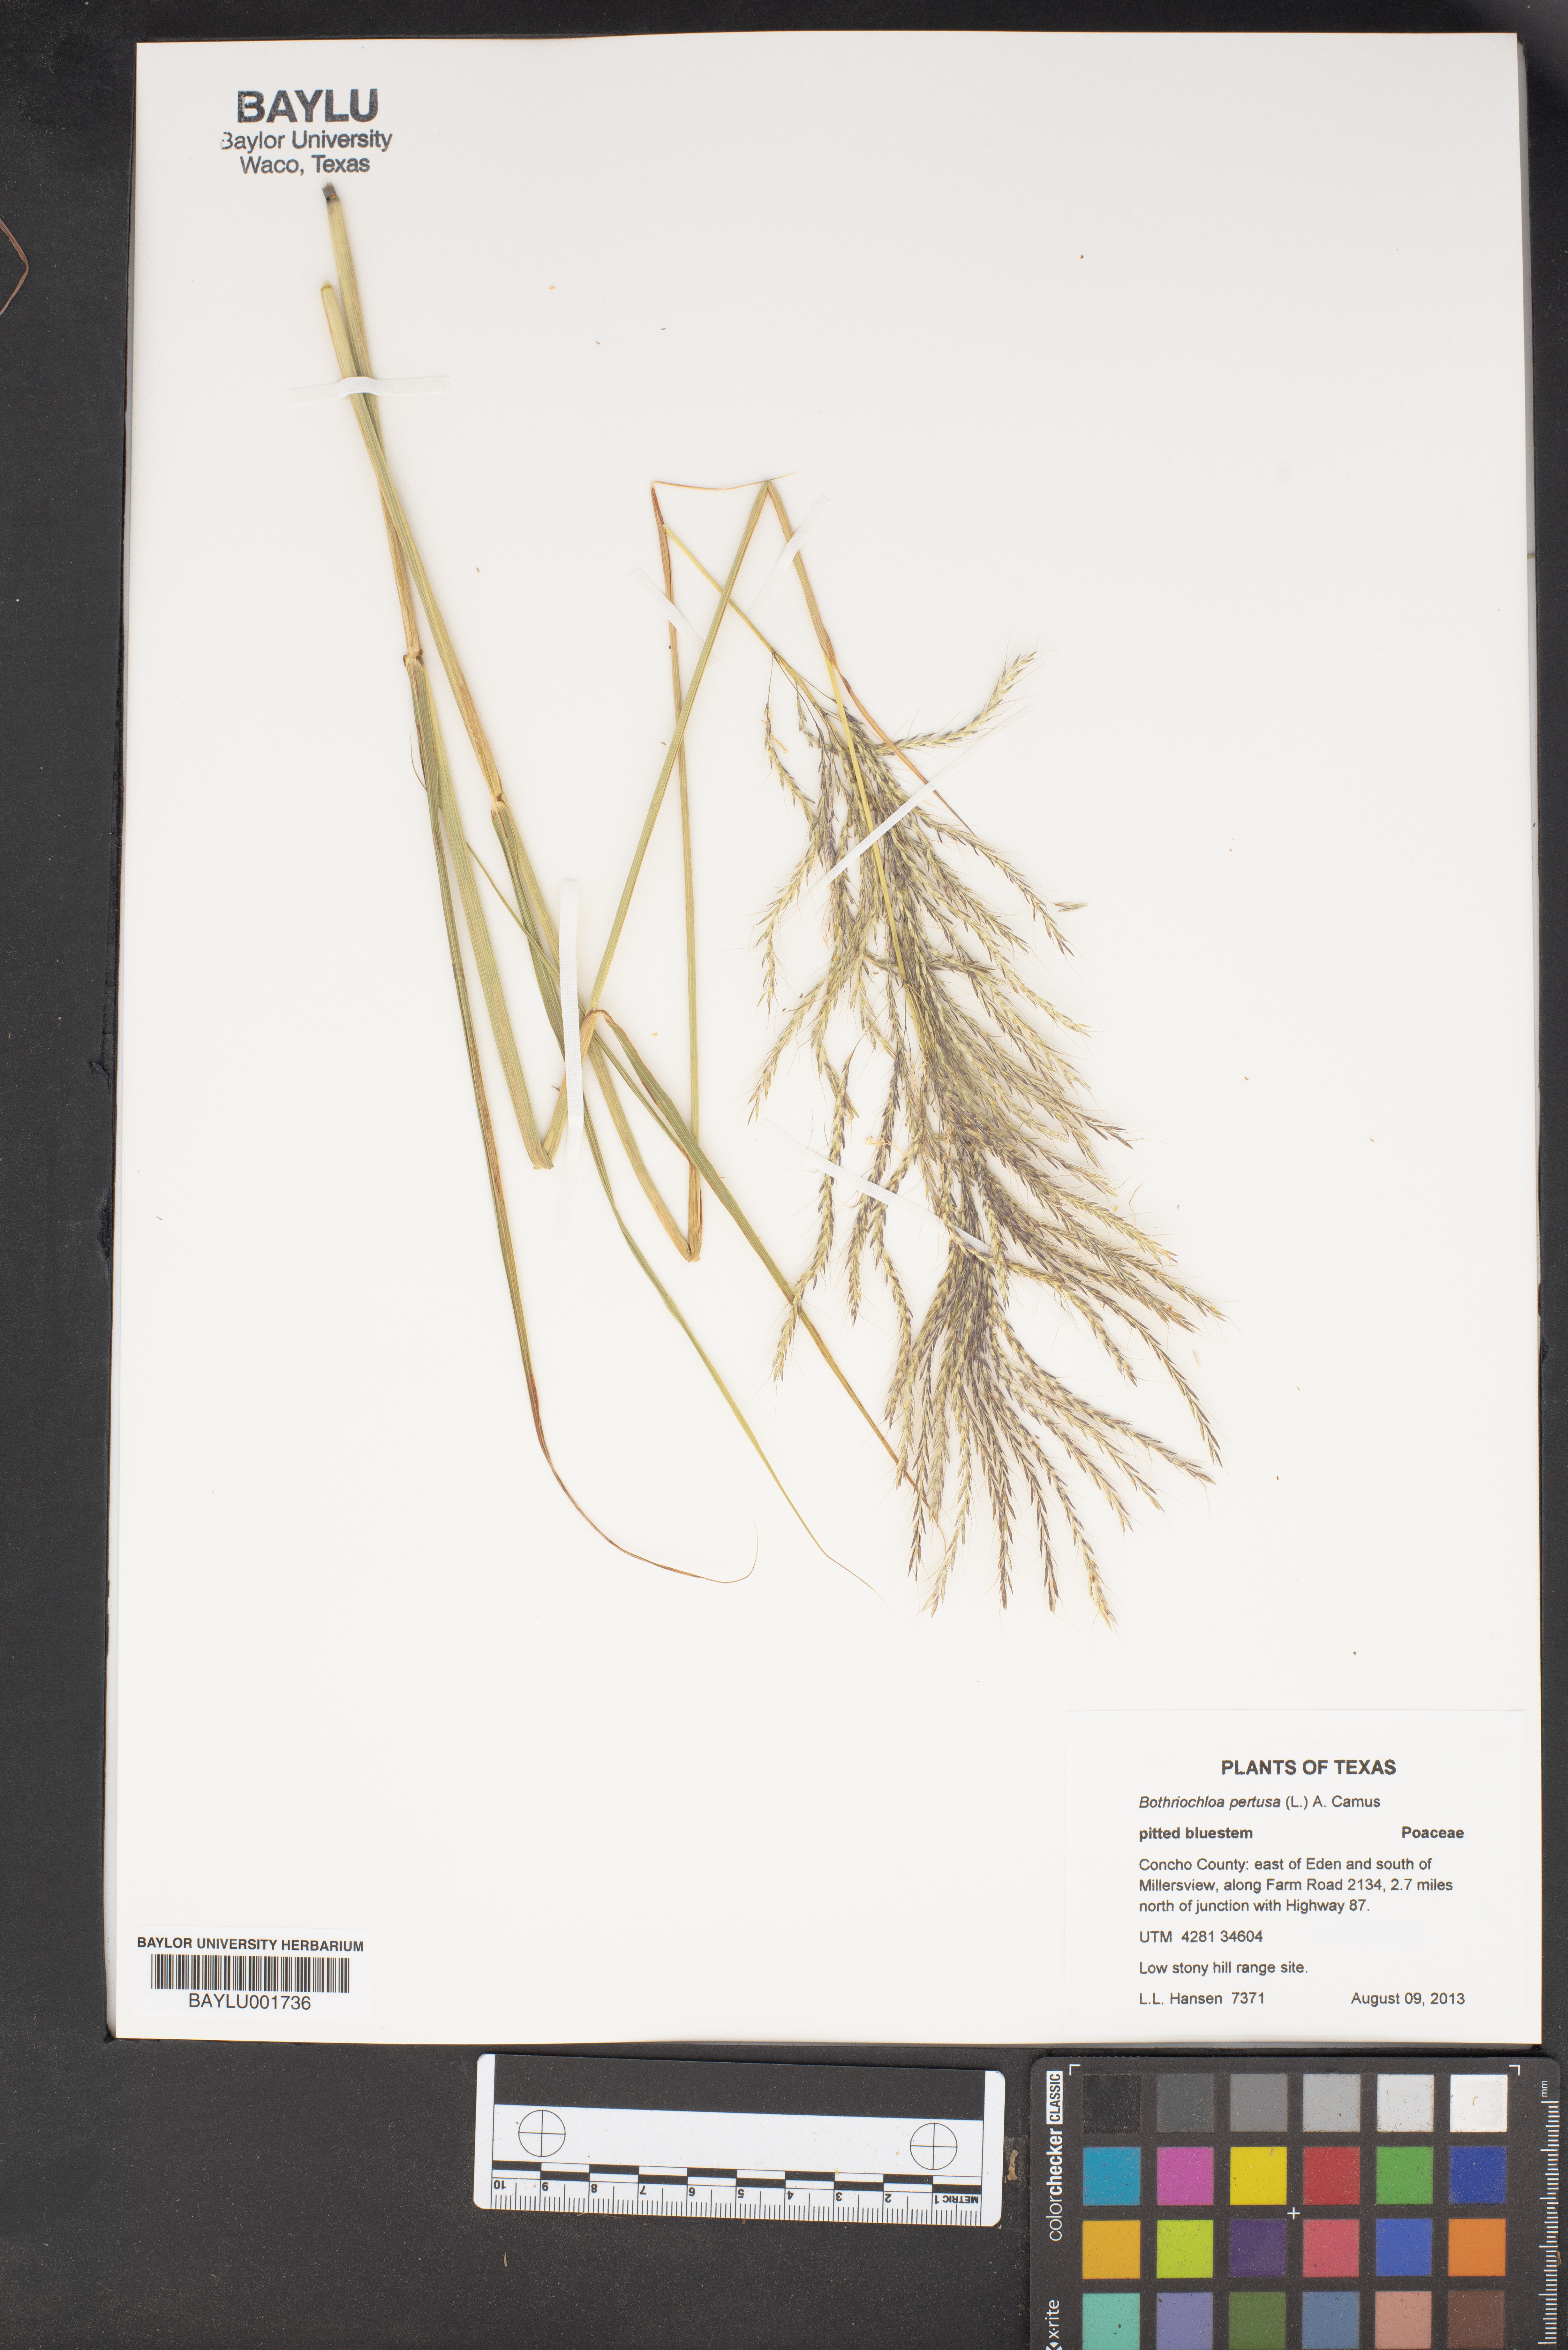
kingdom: Plantae
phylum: Tracheophyta
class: Liliopsida
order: Poales
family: Poaceae
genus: Bothriochloa
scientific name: Bothriochloa pertusa
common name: Pitted beardgrass
